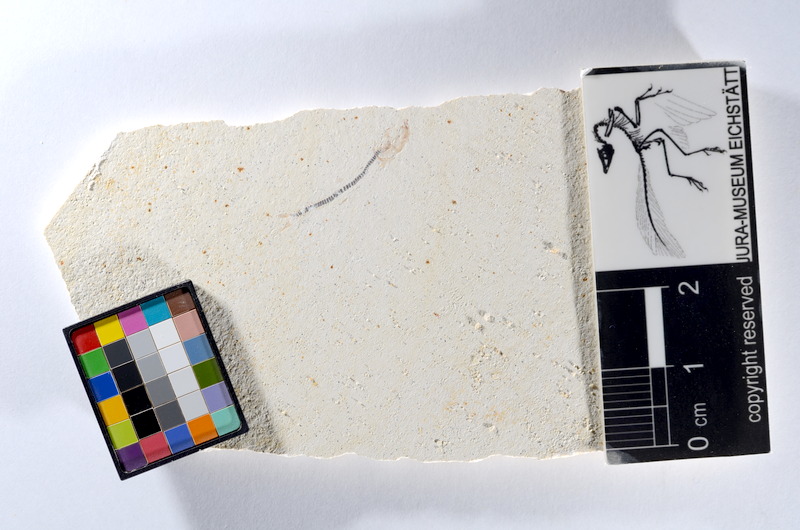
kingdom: Animalia
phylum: Chordata
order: Salmoniformes
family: Orthogonikleithridae
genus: Orthogonikleithrus
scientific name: Orthogonikleithrus hoelli
